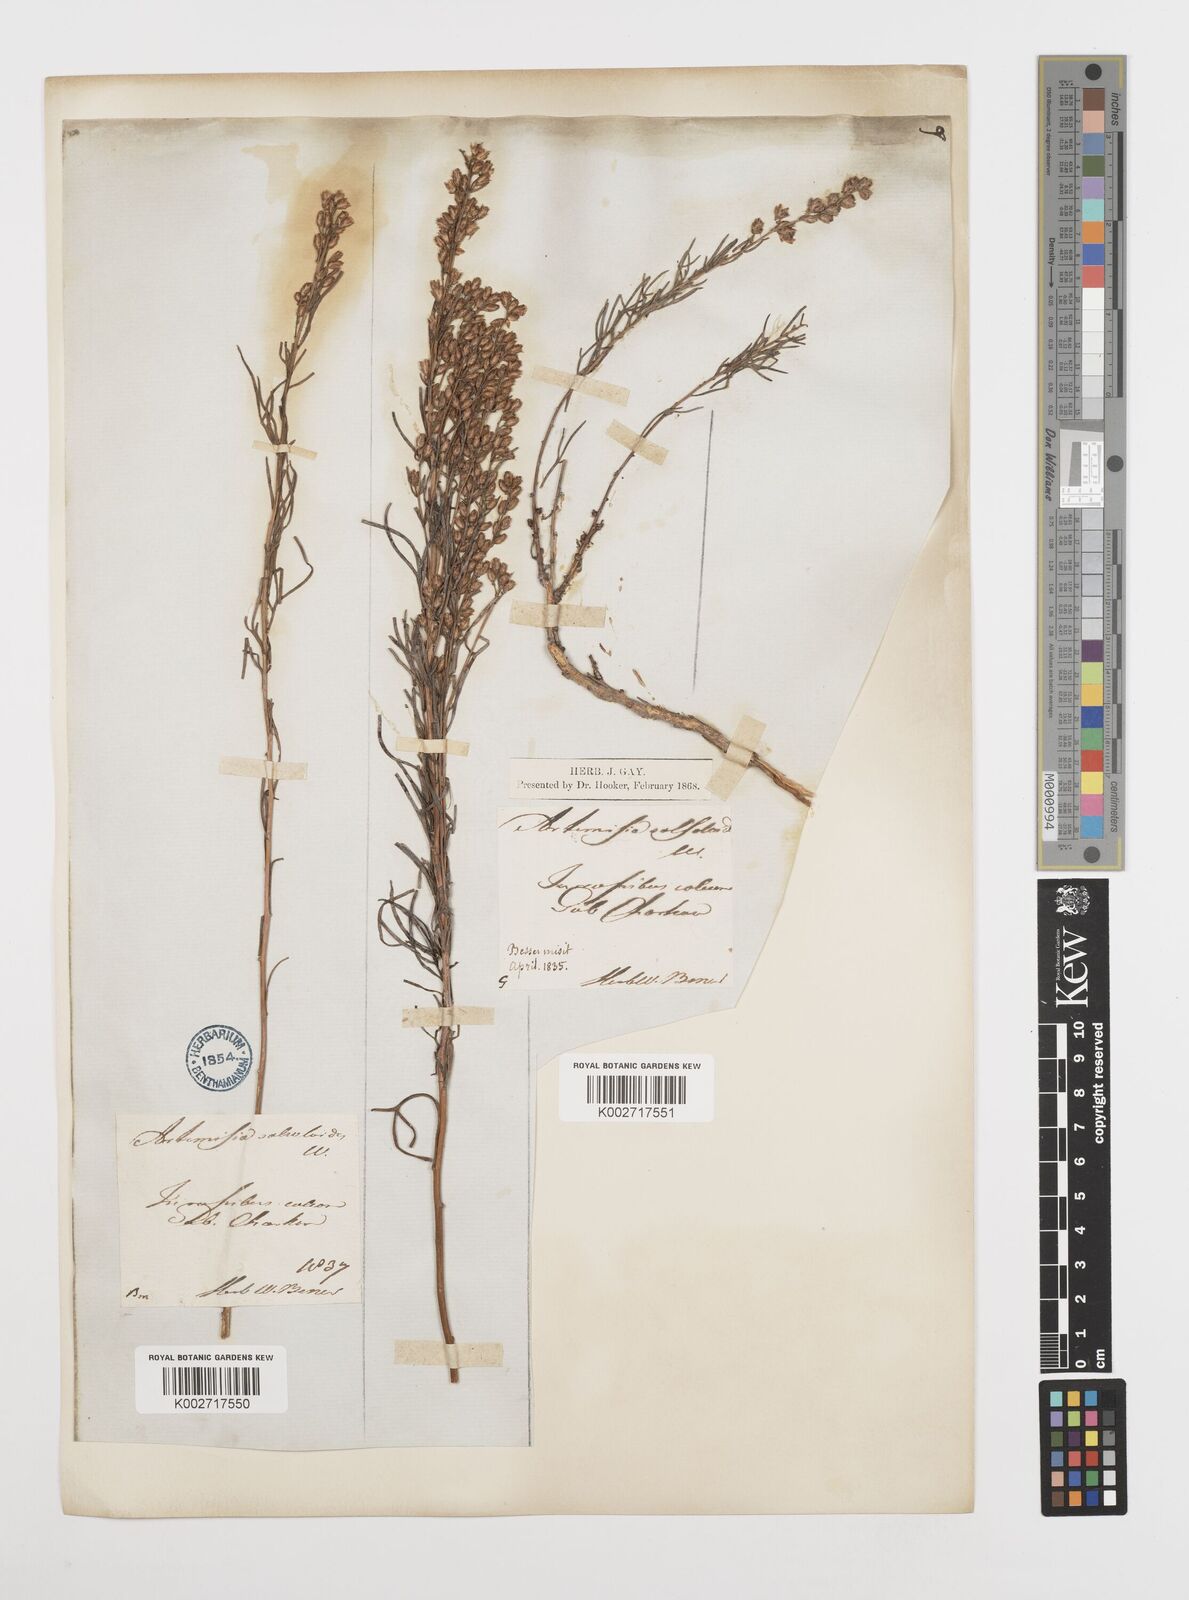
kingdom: Plantae
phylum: Tracheophyta
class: Magnoliopsida
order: Asterales
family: Asteraceae
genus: Artemisia
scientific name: Artemisia salsoloides
